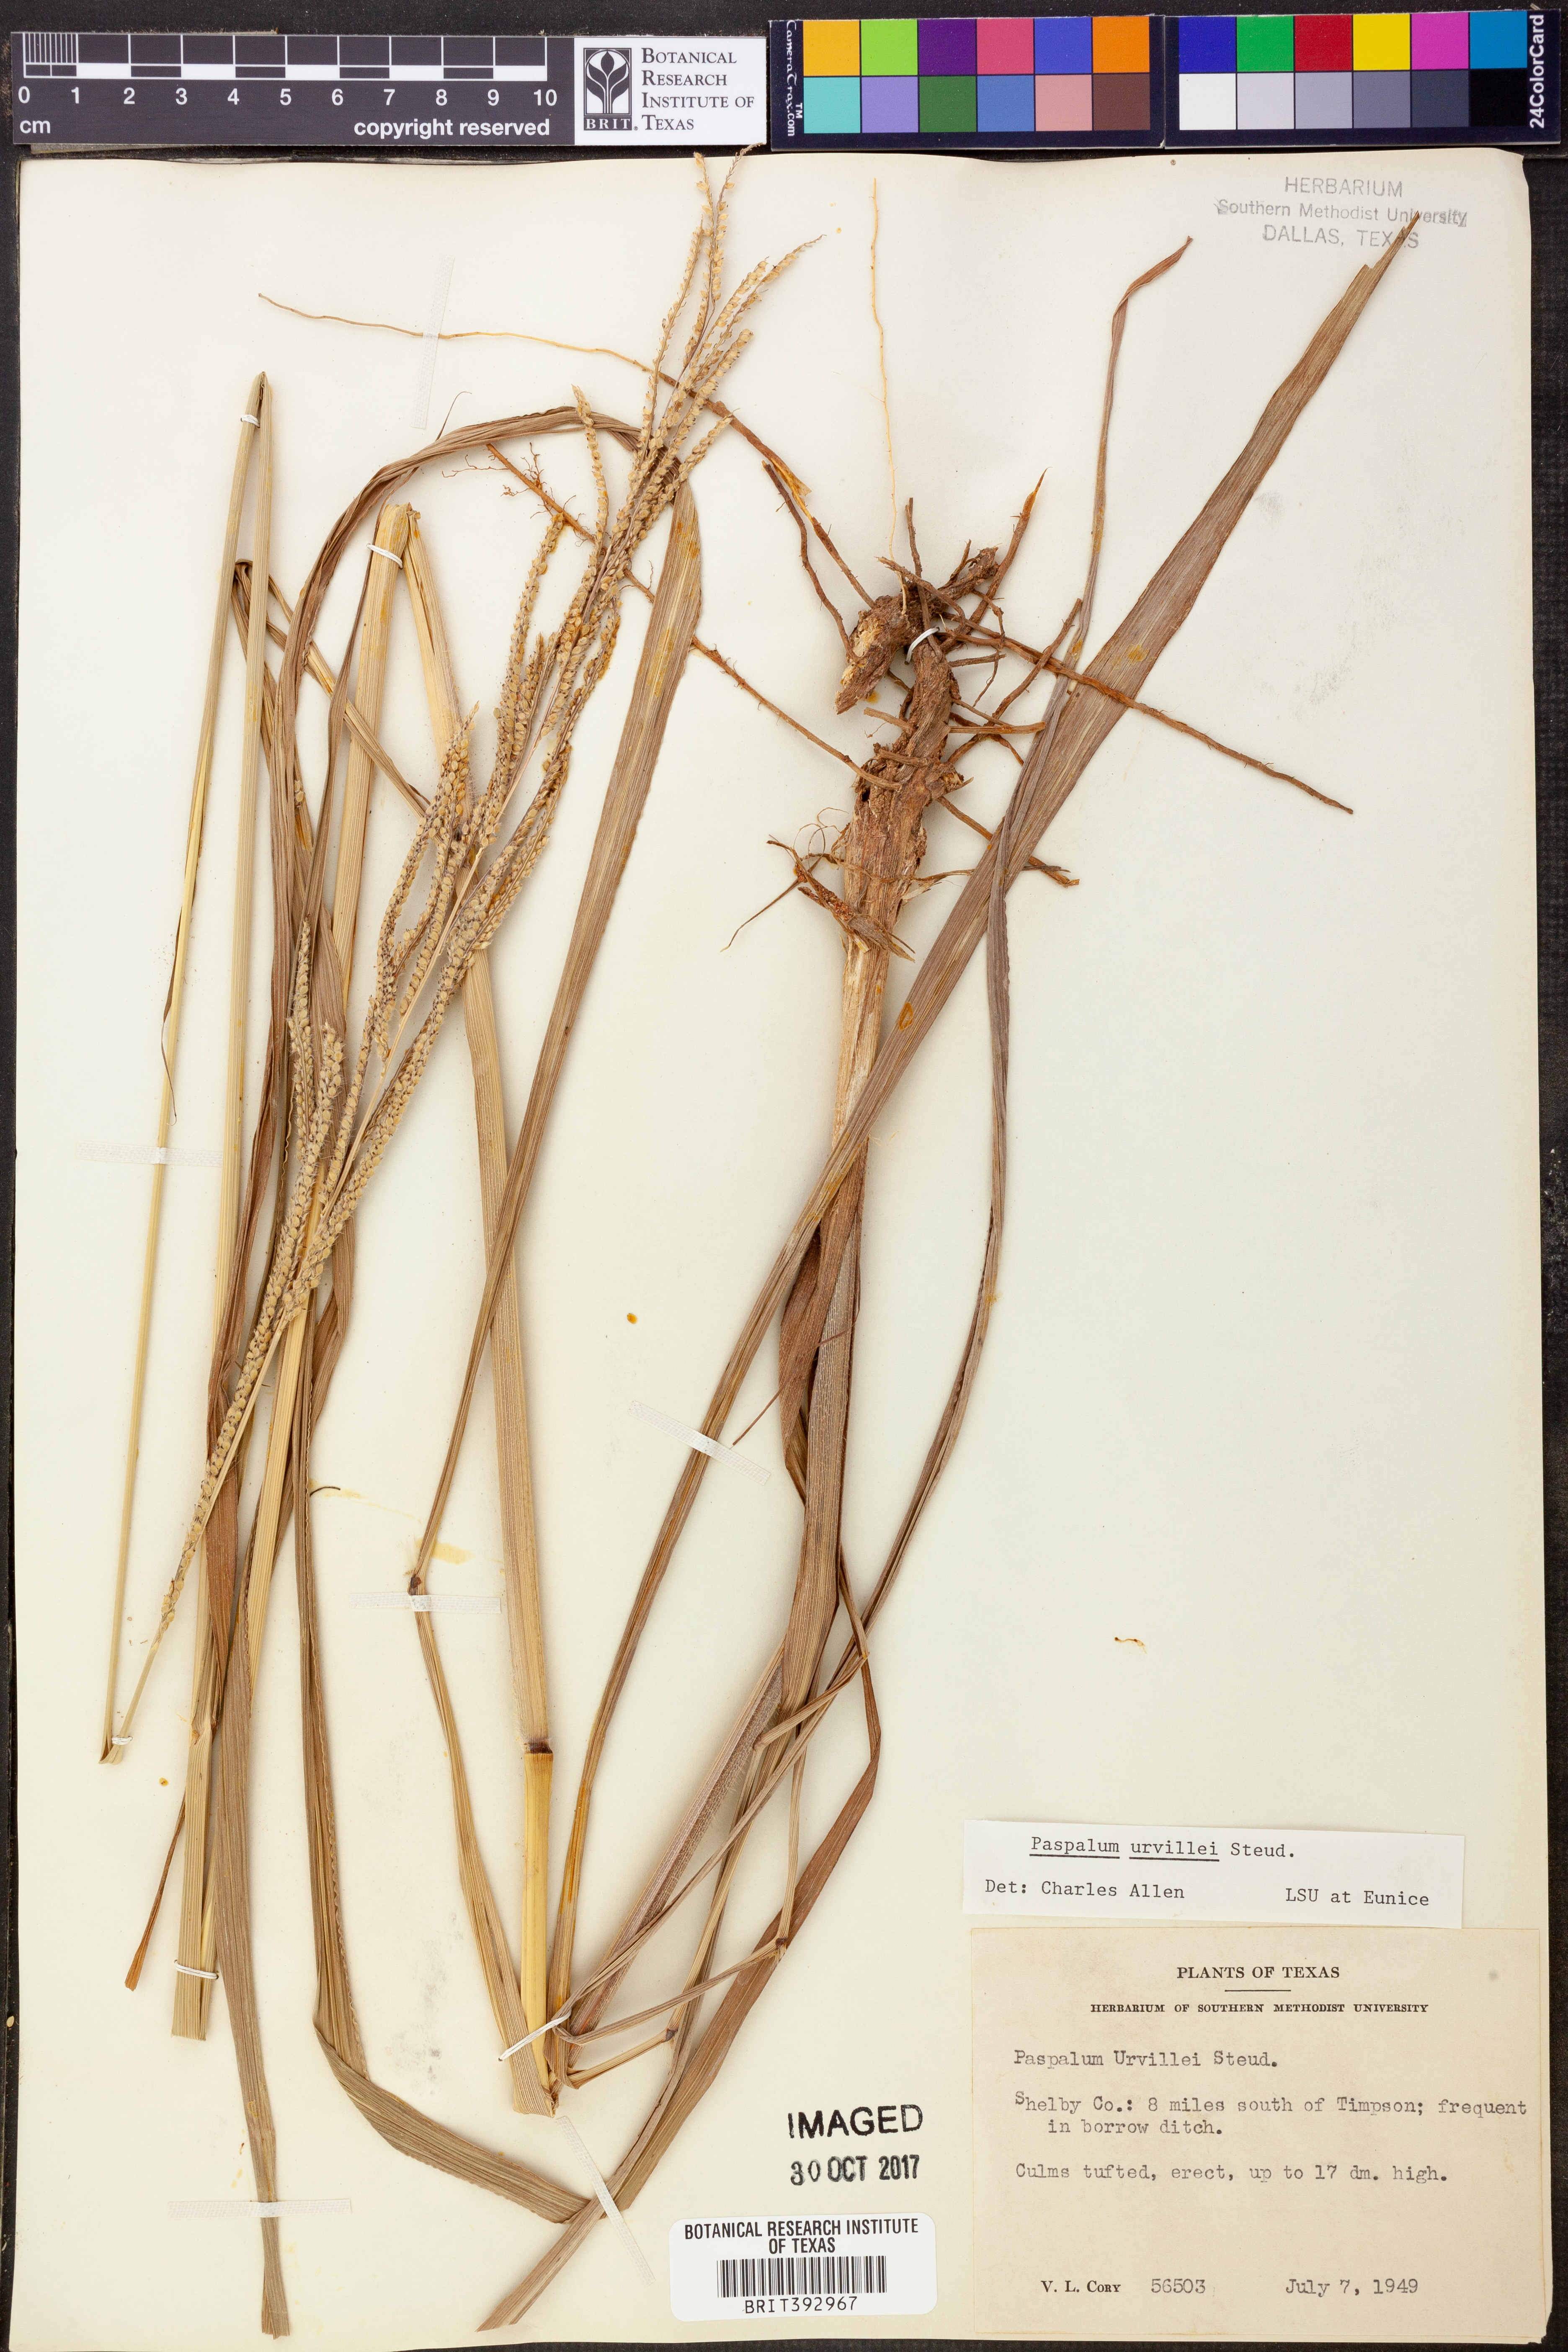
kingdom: Plantae
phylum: Tracheophyta
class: Liliopsida
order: Poales
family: Poaceae
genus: Paspalum
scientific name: Paspalum urvillei
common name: Vasey's grass
